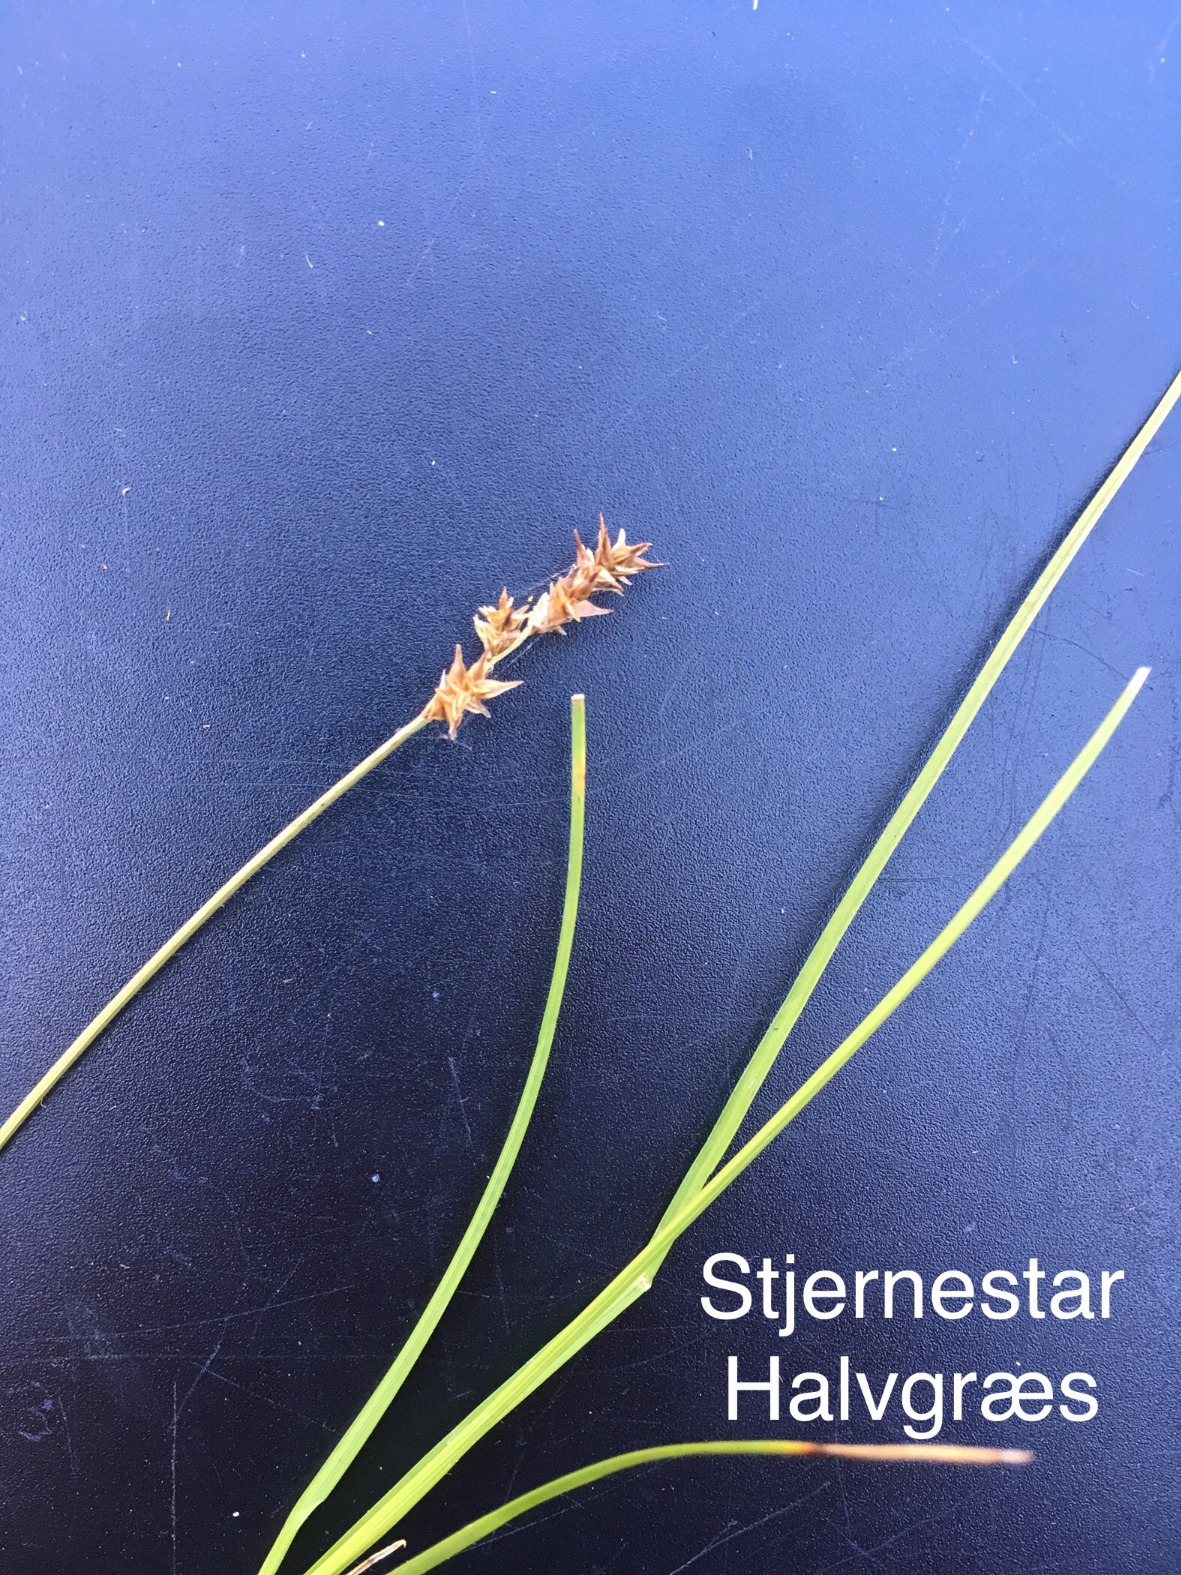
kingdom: Plantae
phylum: Tracheophyta
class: Liliopsida
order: Poales
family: Cyperaceae
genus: Carex
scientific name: Carex echinata
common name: Stjerne-star
